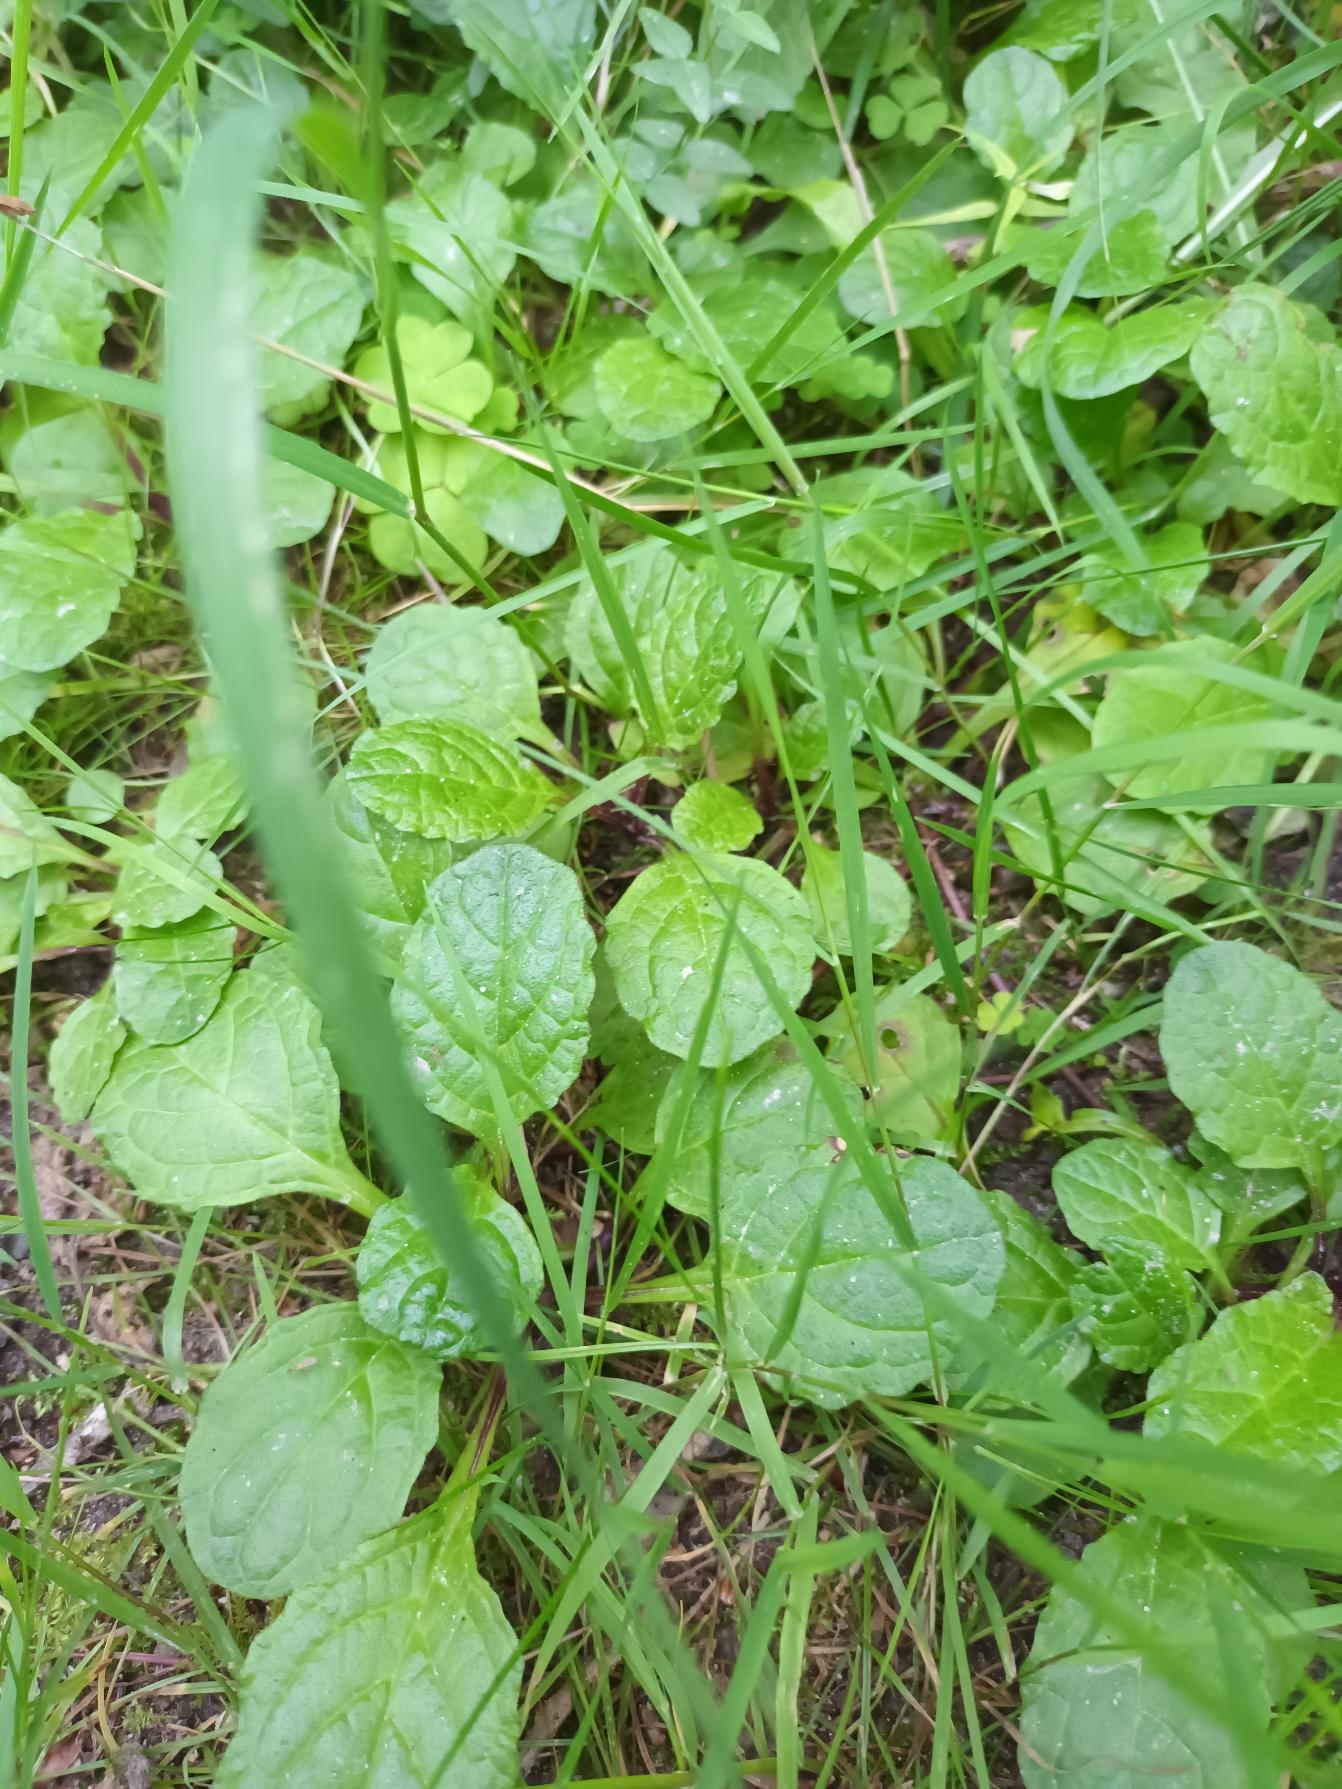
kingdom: Plantae
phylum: Tracheophyta
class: Magnoliopsida
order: Lamiales
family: Lamiaceae
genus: Ajuga
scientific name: Ajuga reptans
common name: Krybende læbeløs
